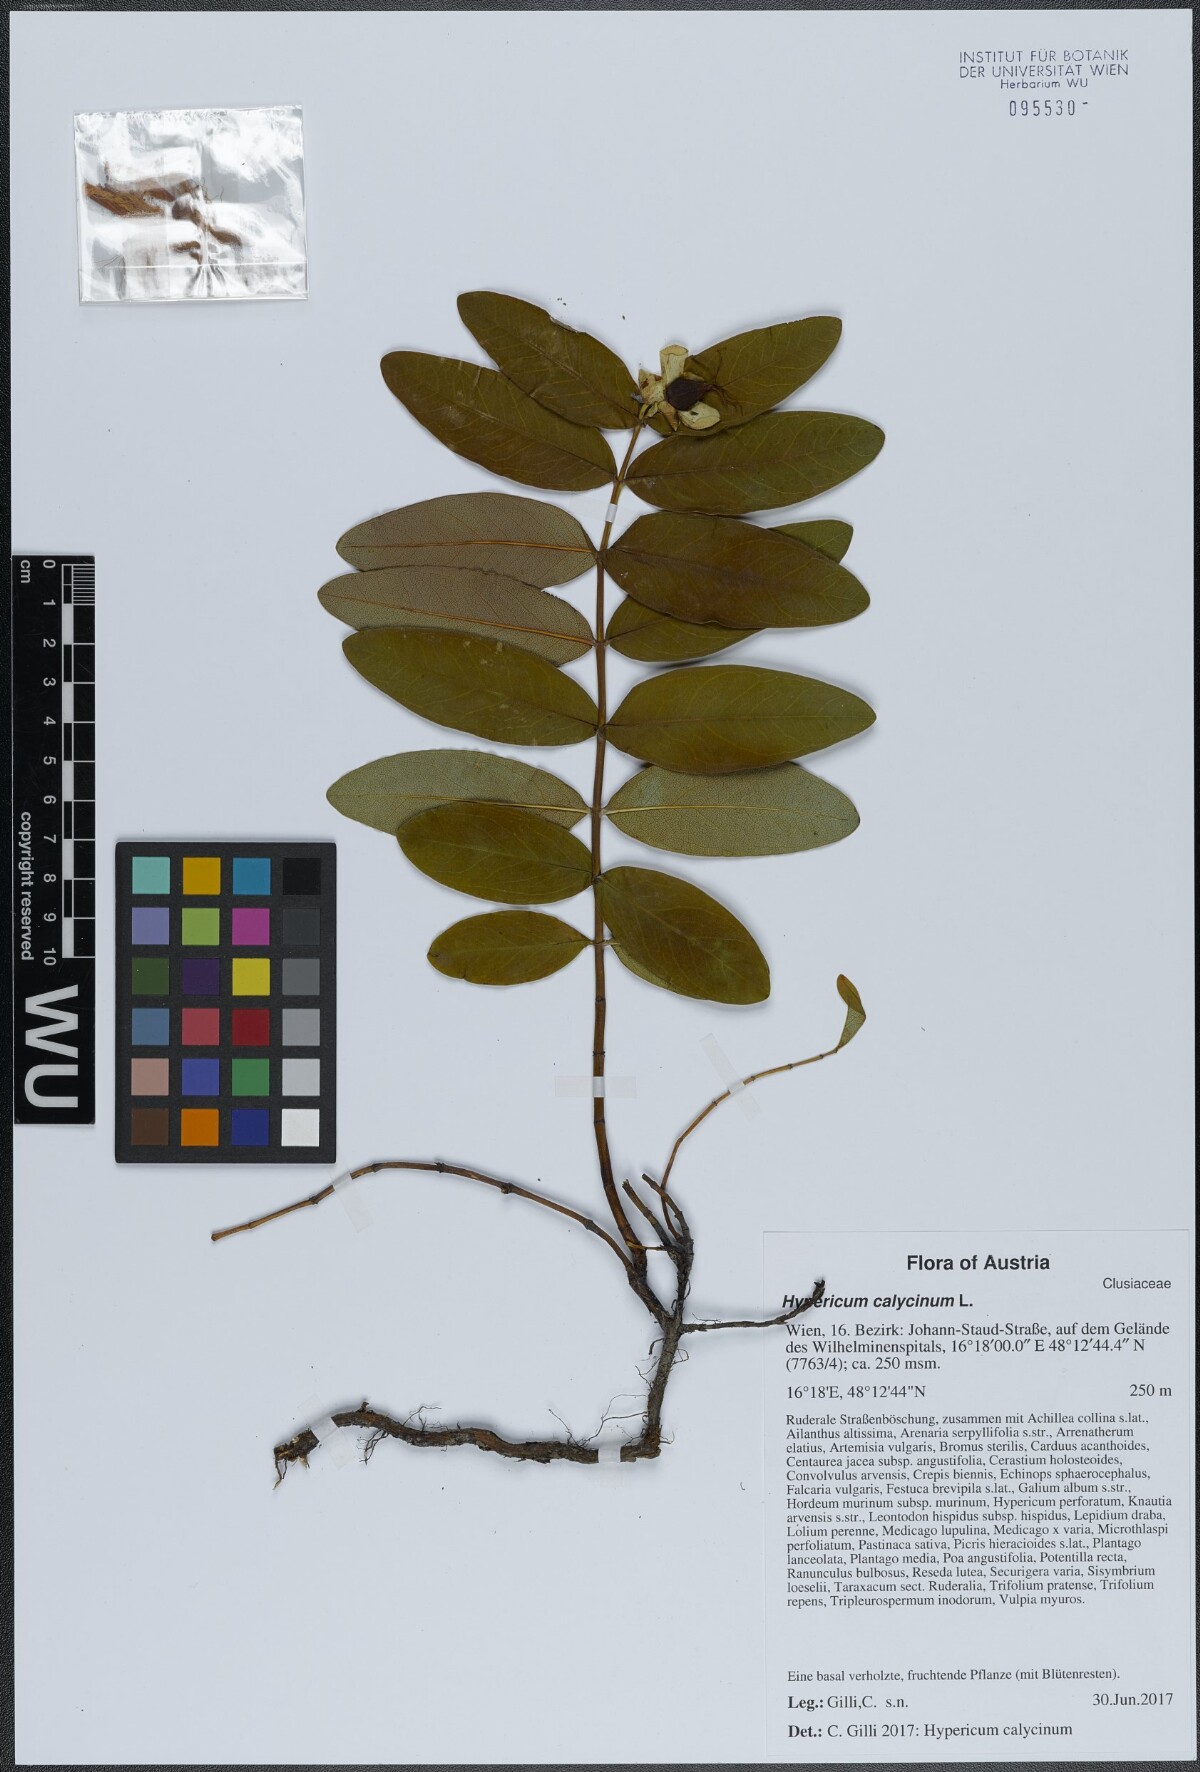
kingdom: Plantae
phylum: Tracheophyta
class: Magnoliopsida
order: Malpighiales
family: Hypericaceae
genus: Hypericum
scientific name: Hypericum calycinum
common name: Rose-of-sharon
